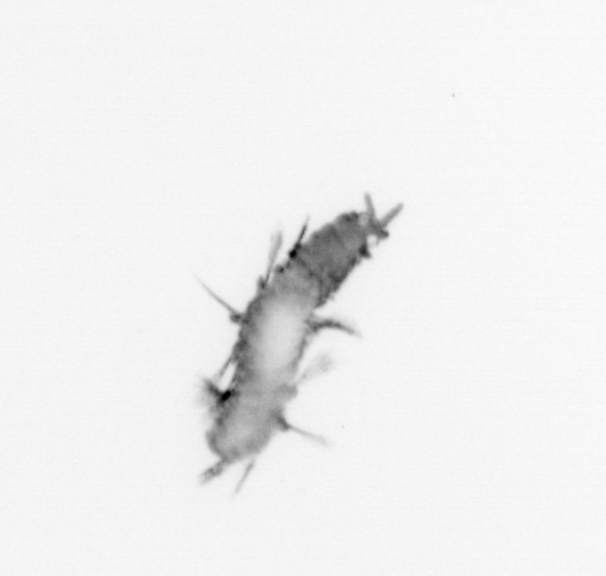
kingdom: Animalia
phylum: Annelida
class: Polychaeta
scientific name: Polychaeta
